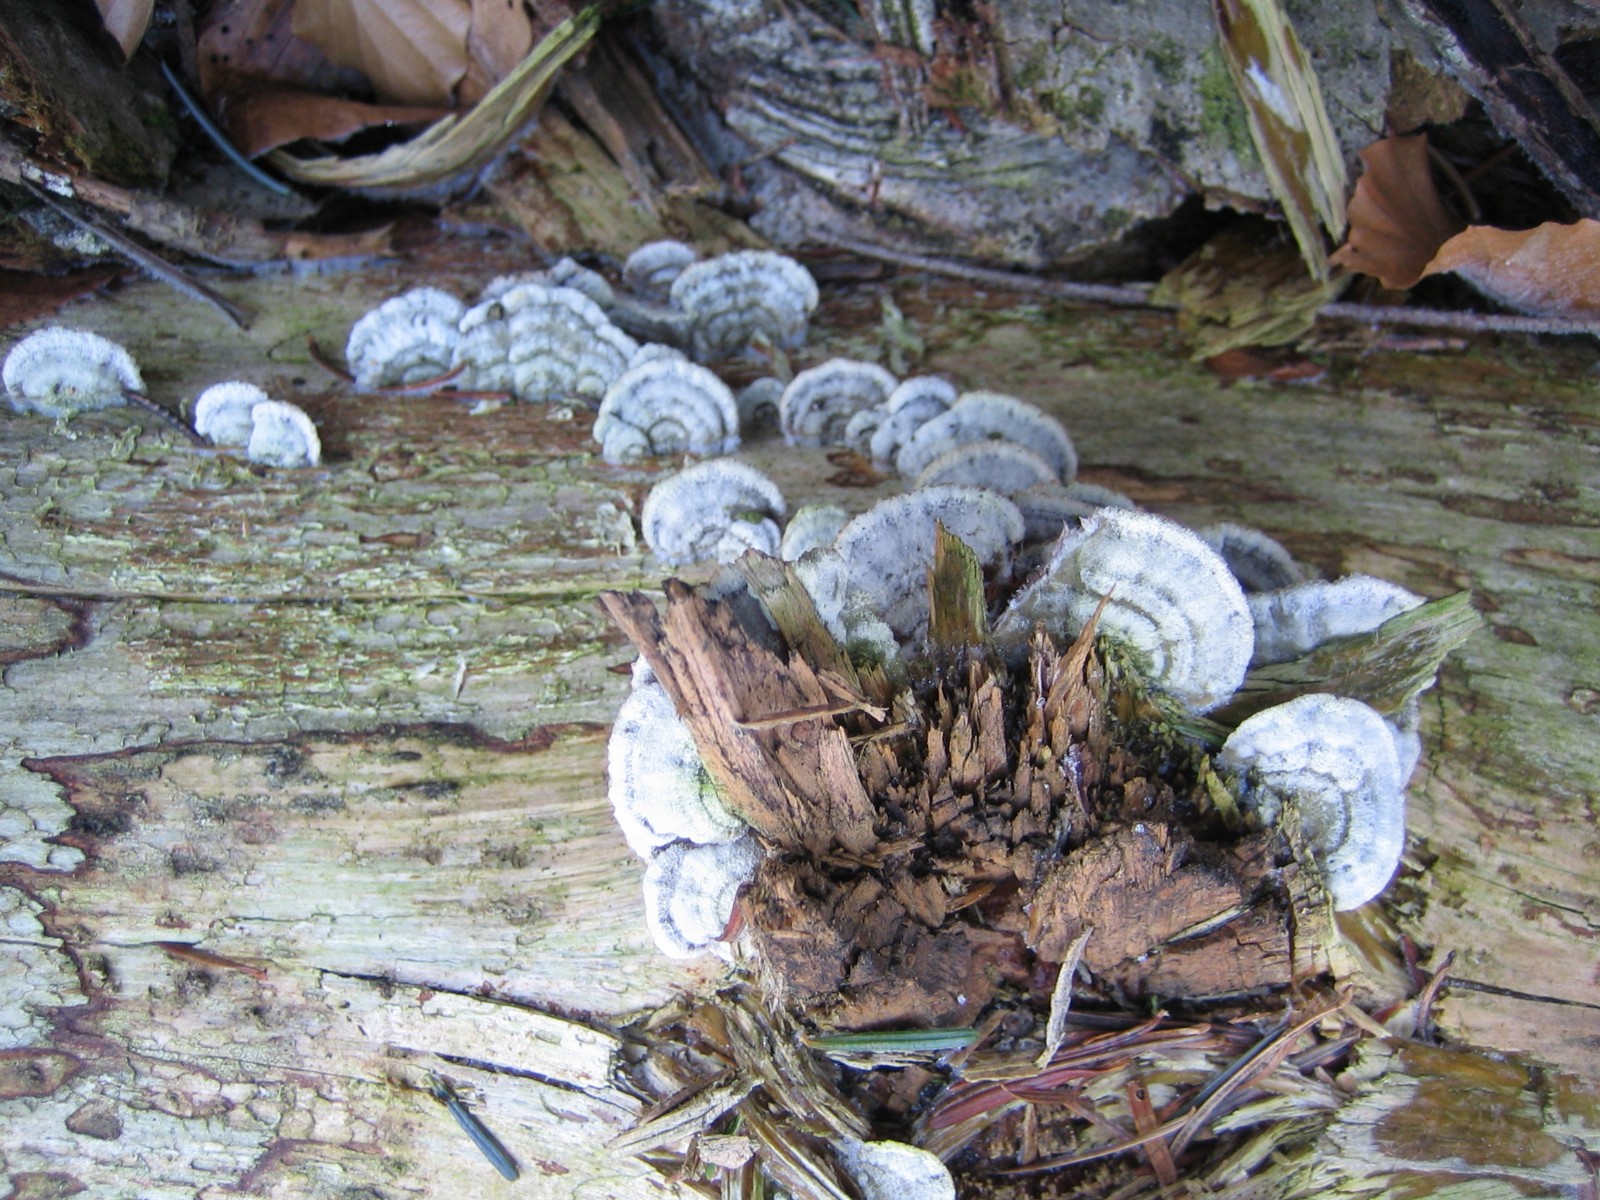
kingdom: Fungi
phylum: Basidiomycota
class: Agaricomycetes
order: Hymenochaetales
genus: Trichaptum
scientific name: Trichaptum abietinum
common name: almindelig violporesvamp
